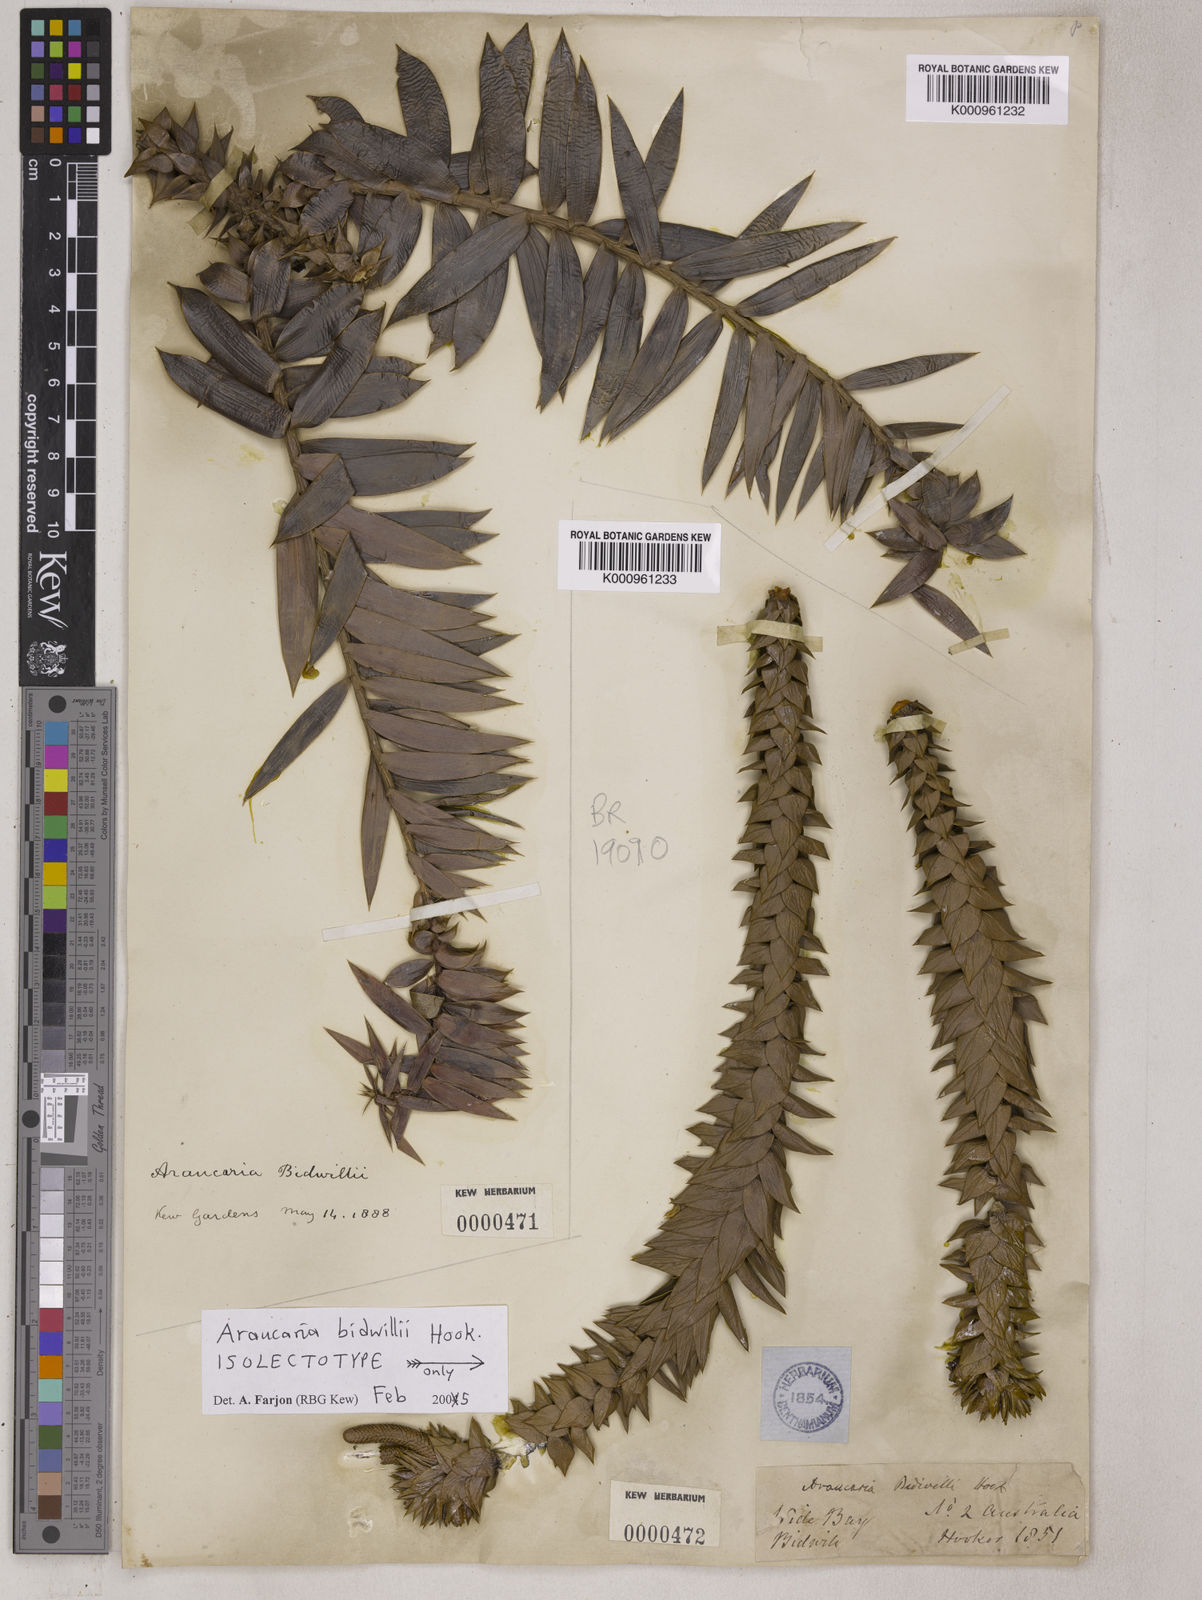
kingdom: Plantae
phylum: Tracheophyta
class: Pinopsida
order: Pinales
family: Araucariaceae
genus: Araucaria
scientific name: Araucaria bidwillii
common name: Moreton-bay-pine
